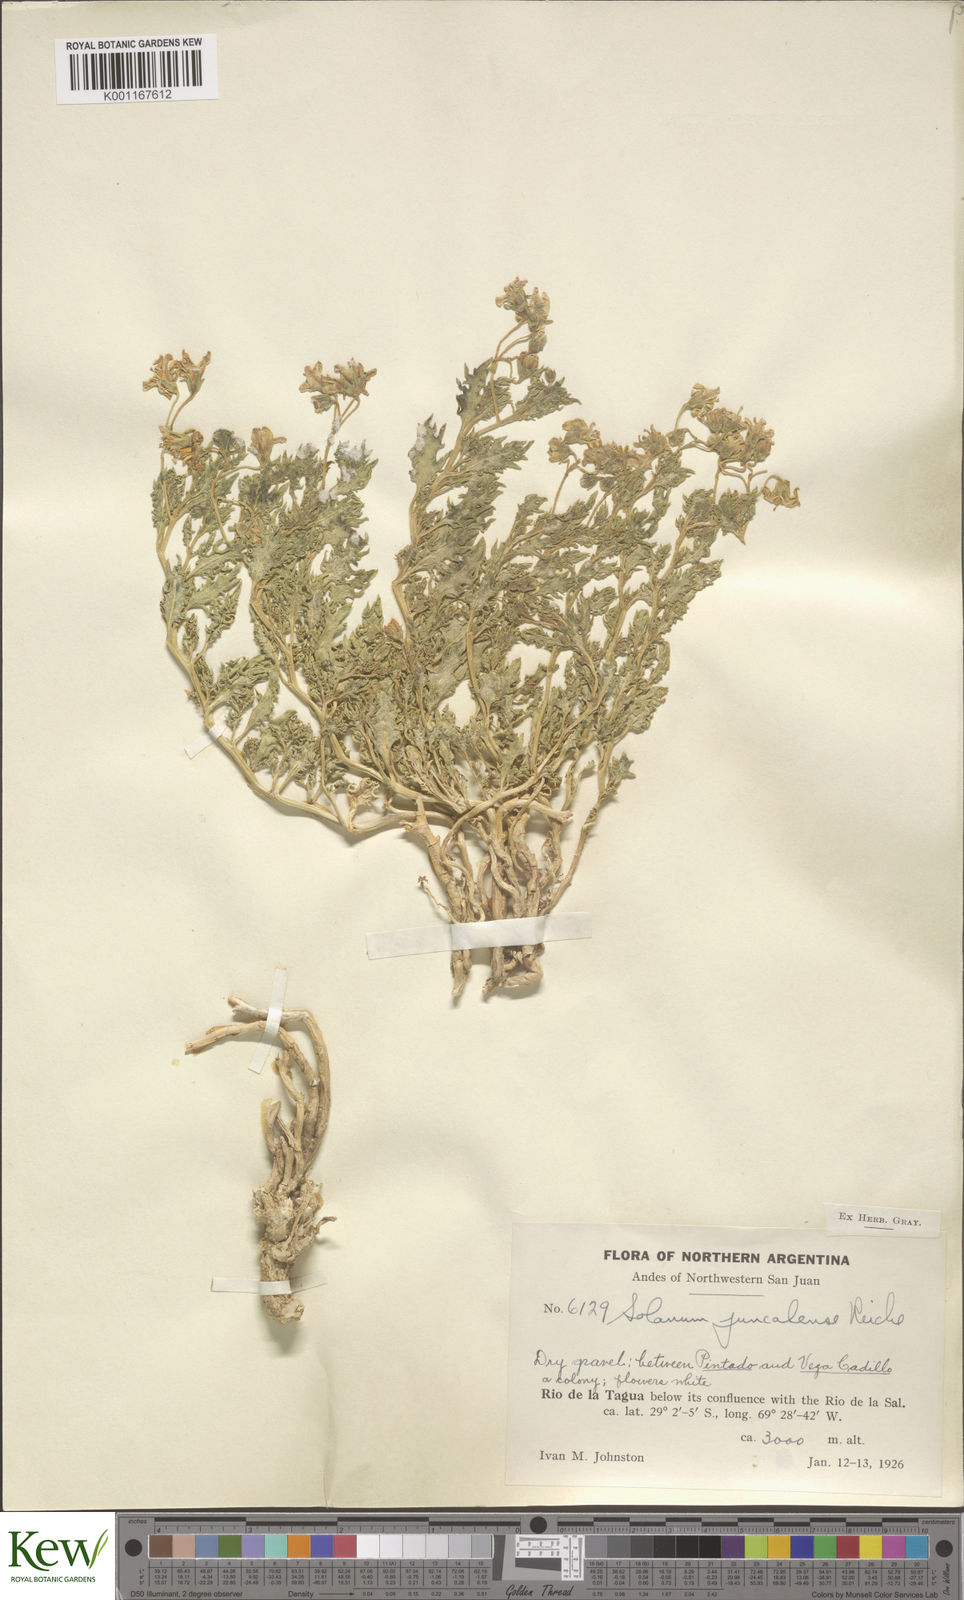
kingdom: Plantae
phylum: Tracheophyta
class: Magnoliopsida
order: Solanales
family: Solanaceae
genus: Solanum
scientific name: Solanum echegarayi
